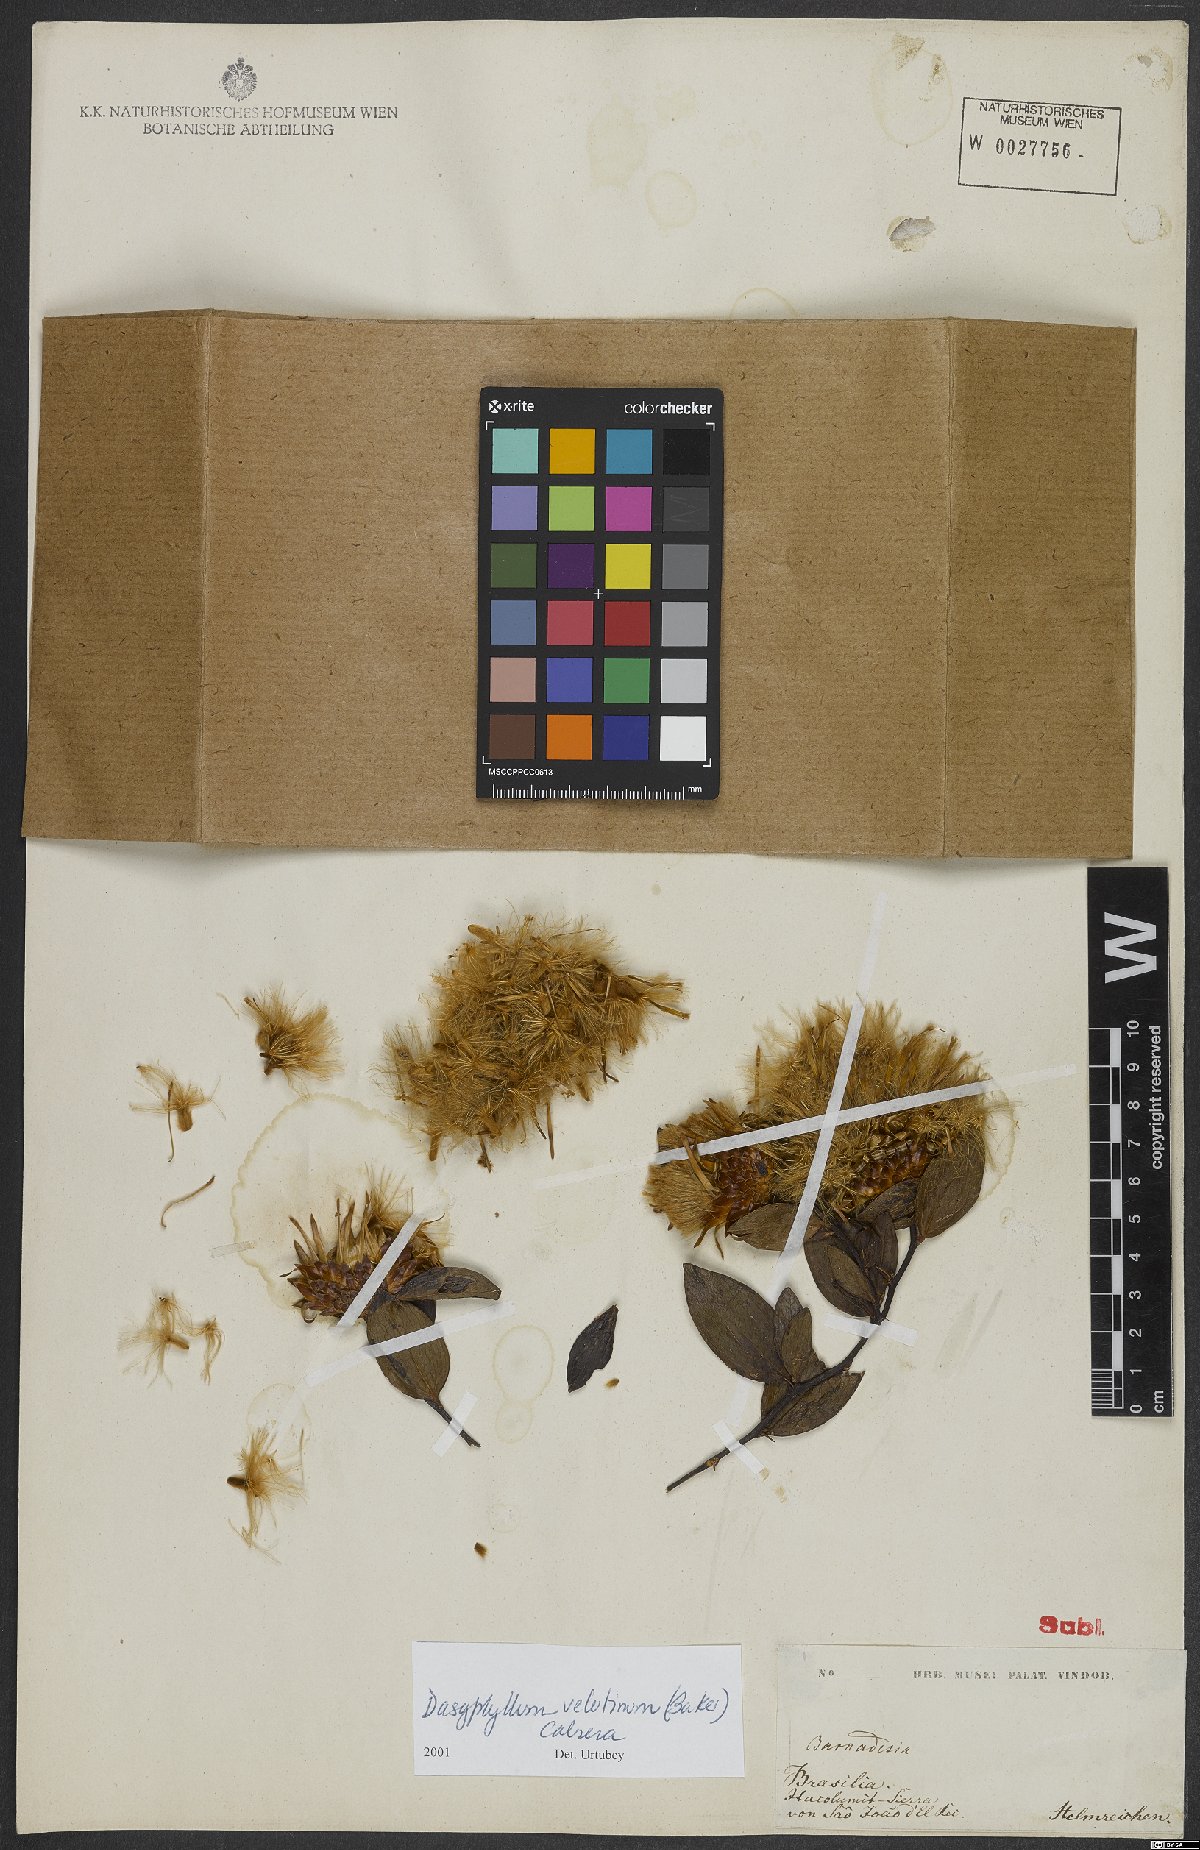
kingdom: Plantae
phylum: Tracheophyta
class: Magnoliopsida
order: Asterales
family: Asteraceae
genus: Dasyphyllum
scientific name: Dasyphyllum velutinum
